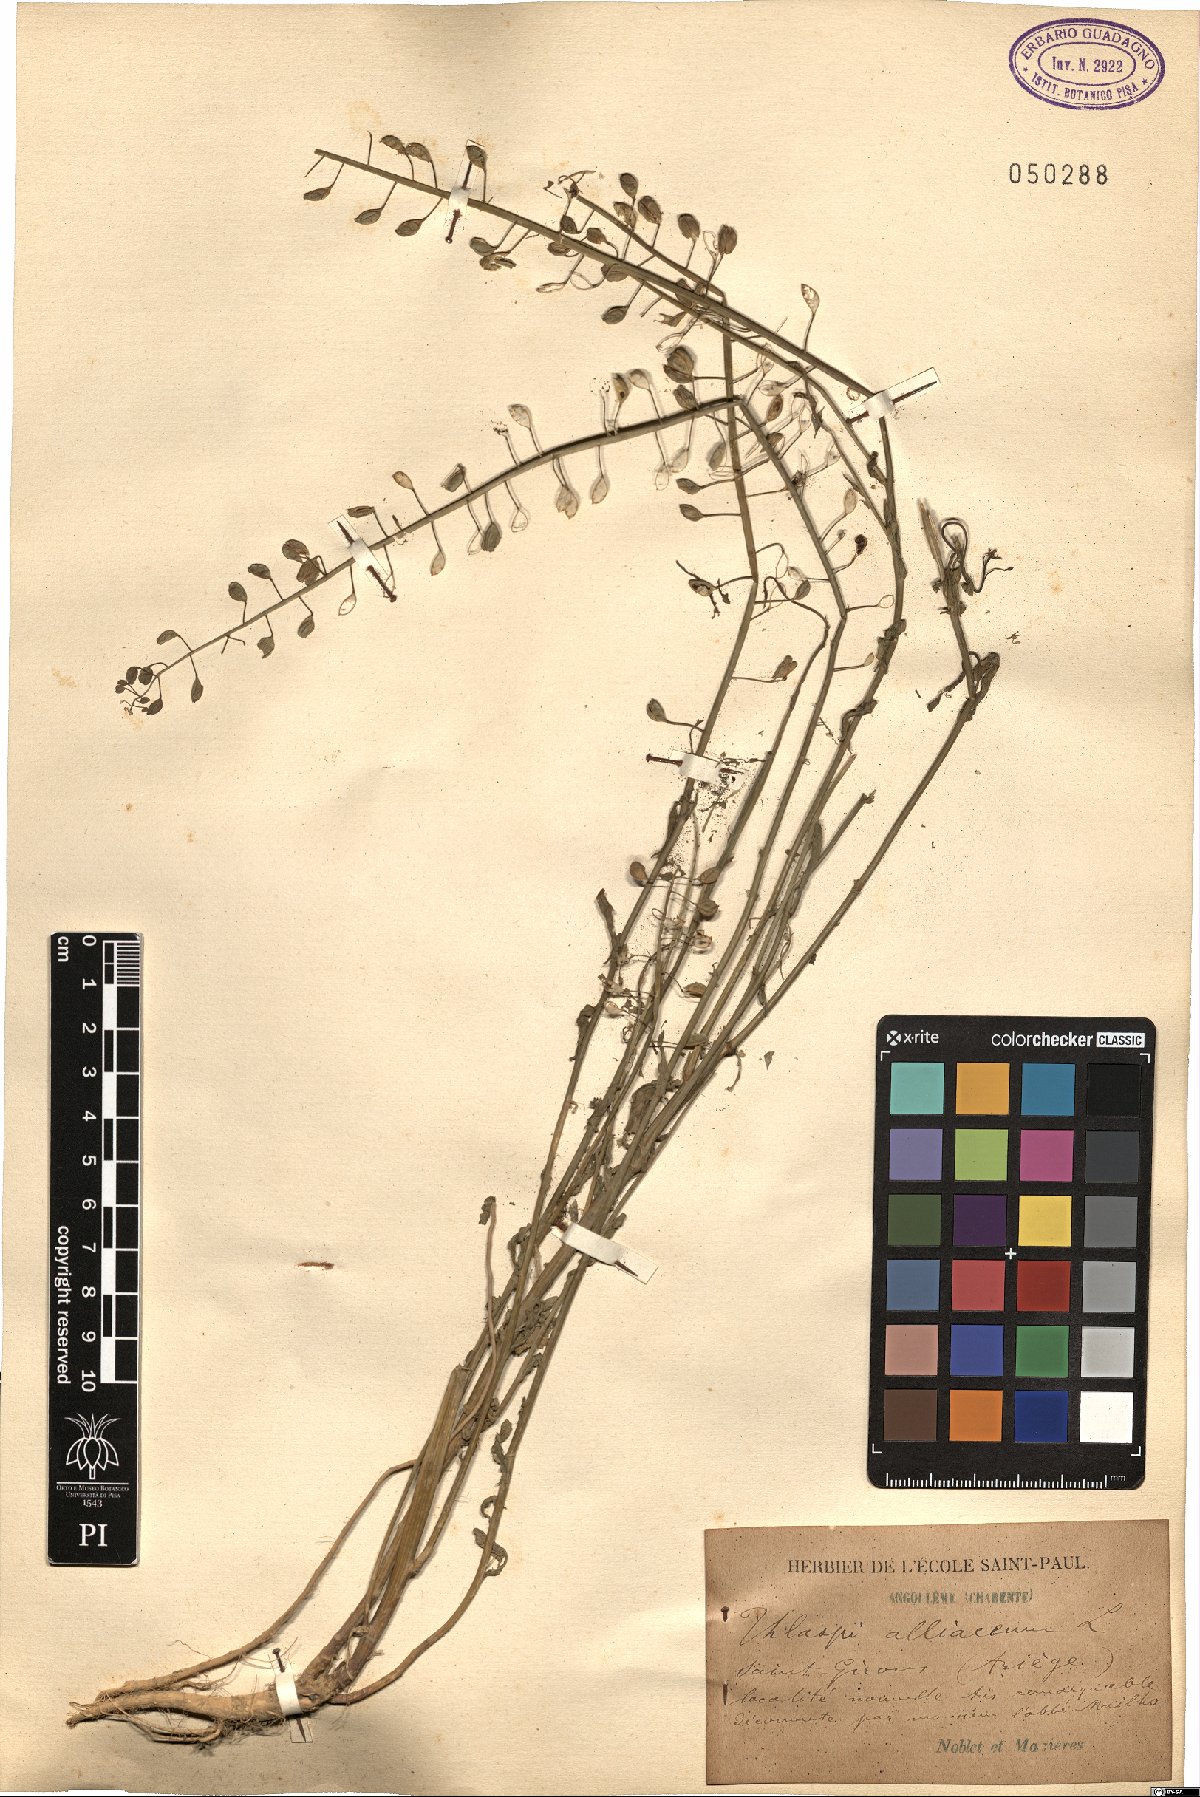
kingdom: Plantae
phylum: Tracheophyta
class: Magnoliopsida
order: Brassicales
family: Brassicaceae
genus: Mummenhoffia
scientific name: Mummenhoffia alliacea
